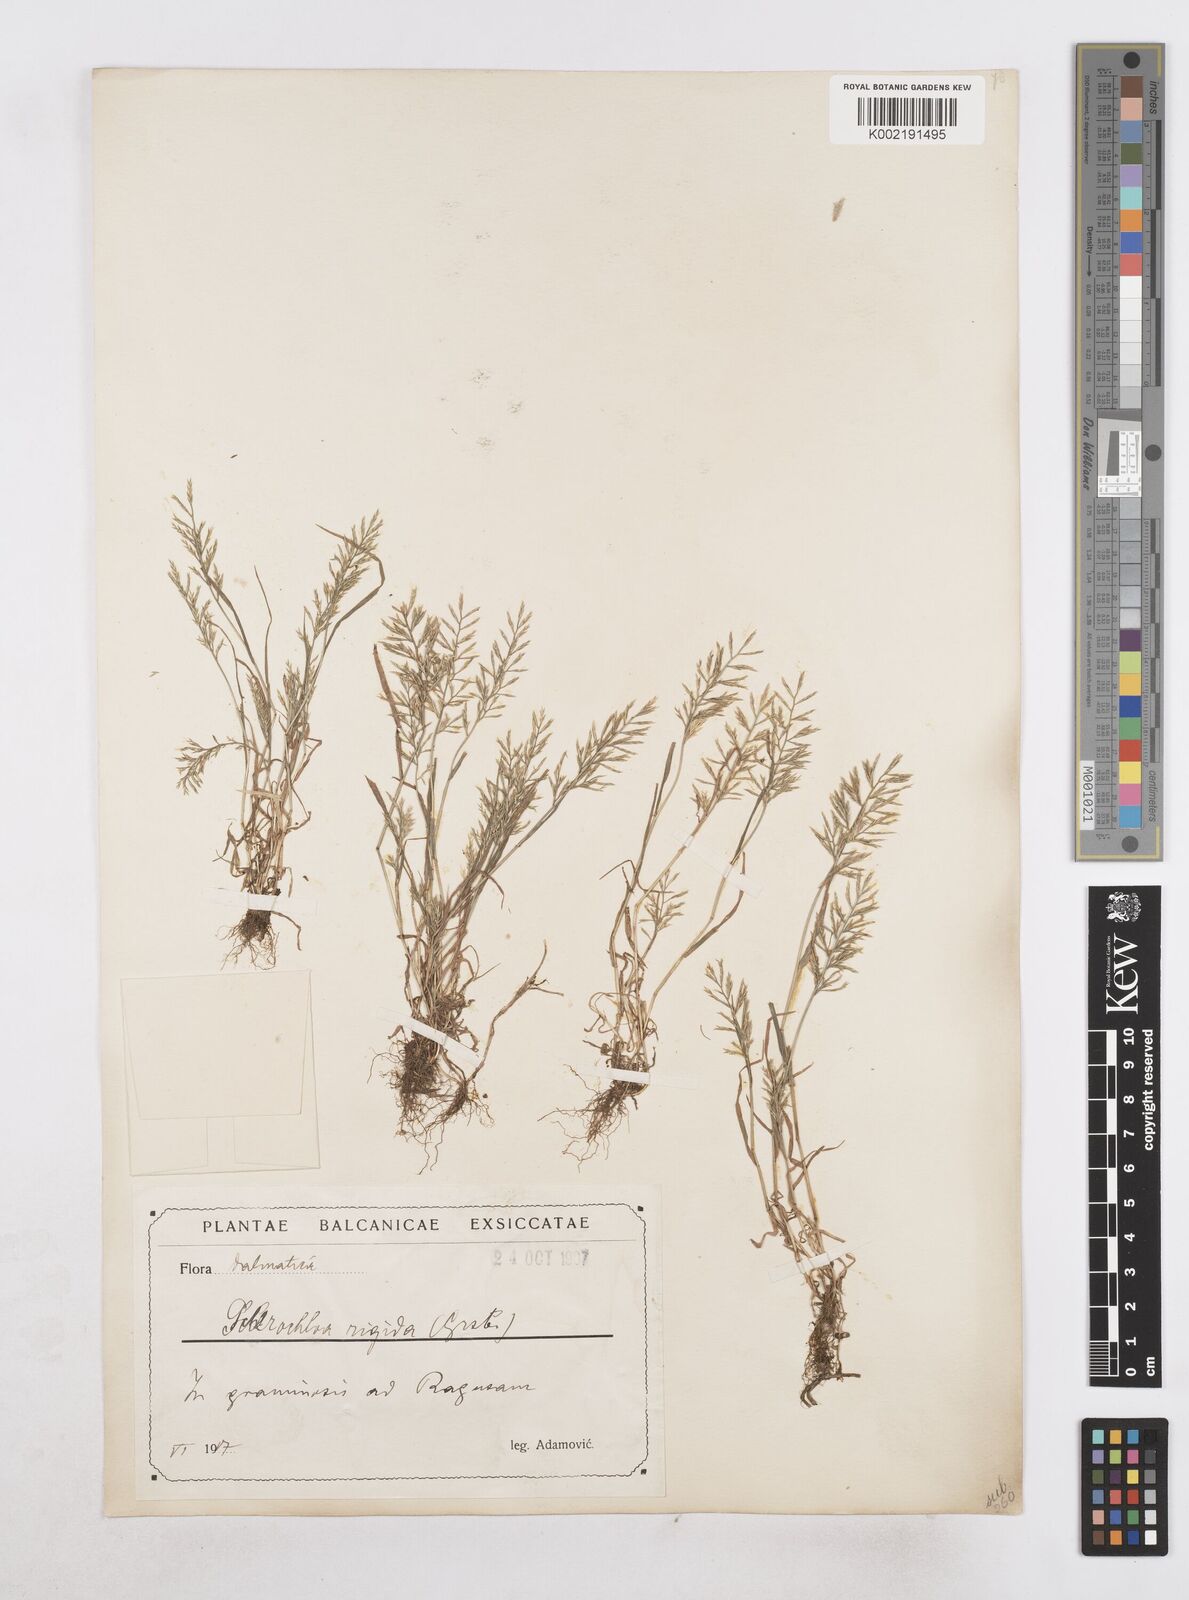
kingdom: Plantae
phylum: Tracheophyta
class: Liliopsida
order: Poales
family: Poaceae
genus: Catapodium
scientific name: Catapodium rigidum
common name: Fern-grass
